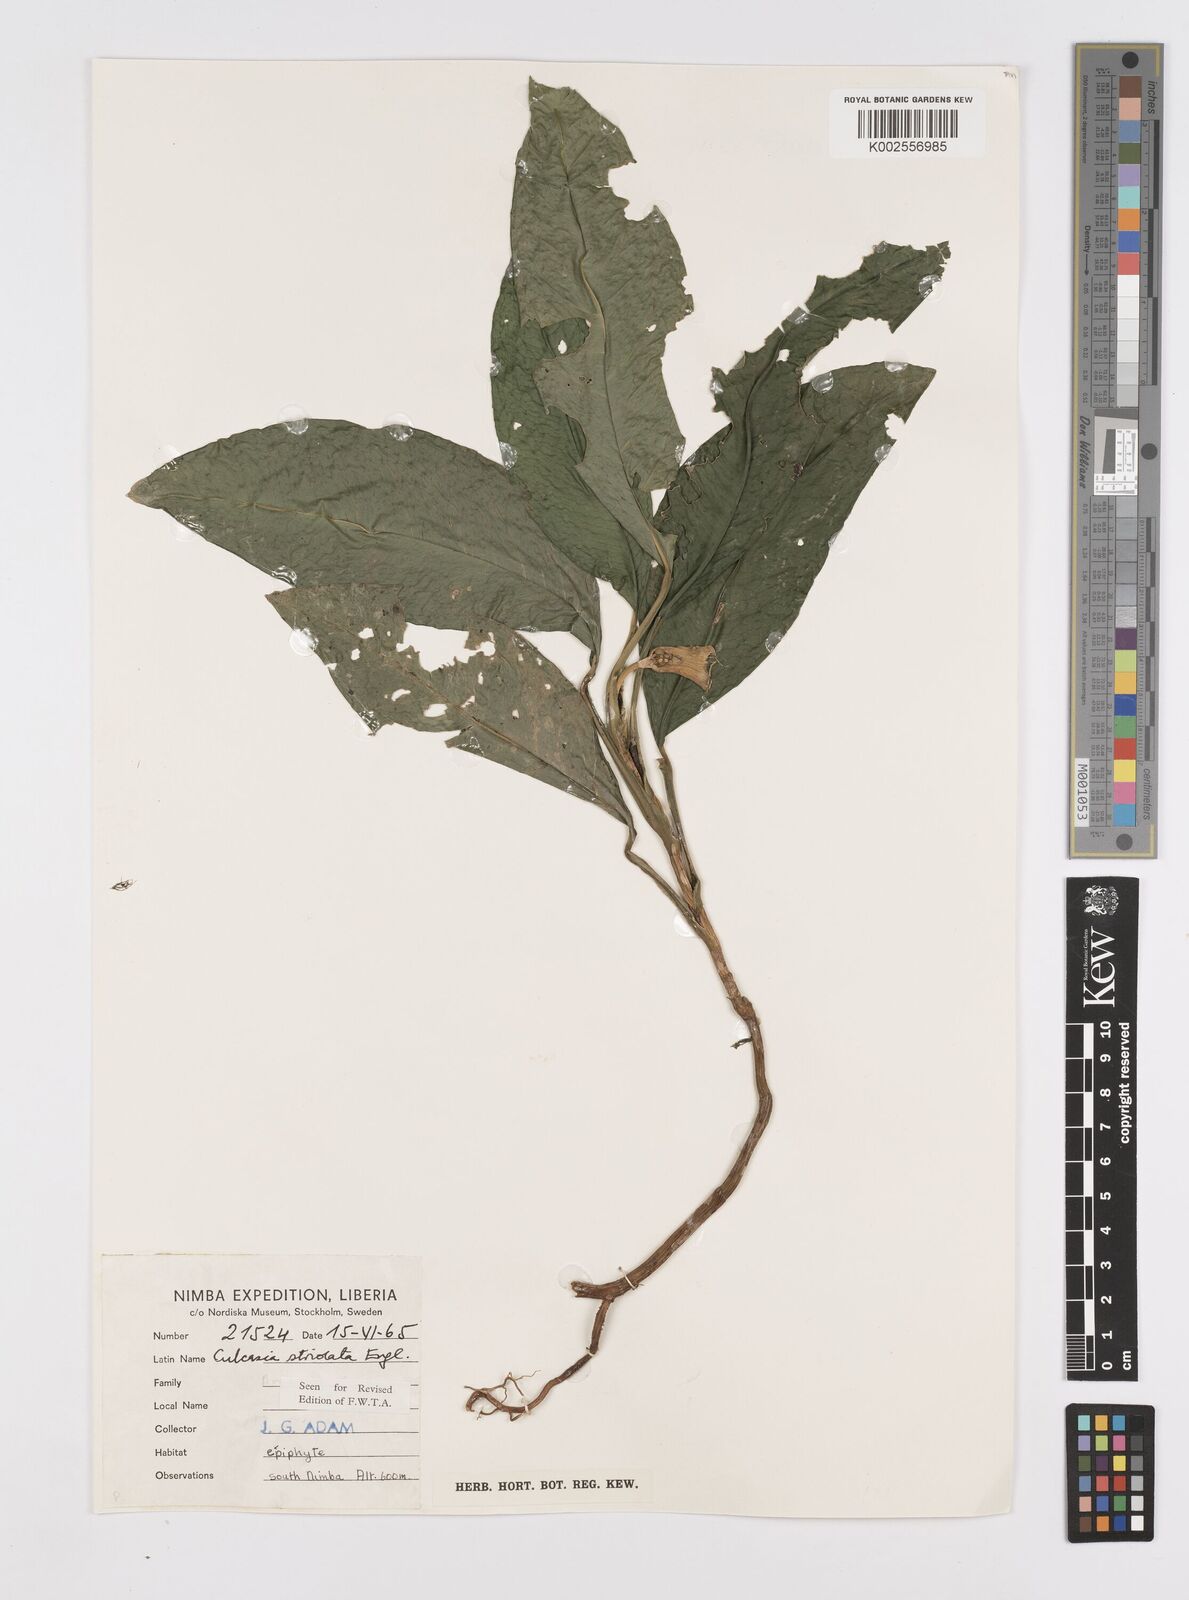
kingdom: Plantae
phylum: Tracheophyta
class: Liliopsida
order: Alismatales
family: Araceae
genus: Culcasia
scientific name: Culcasia striolata
